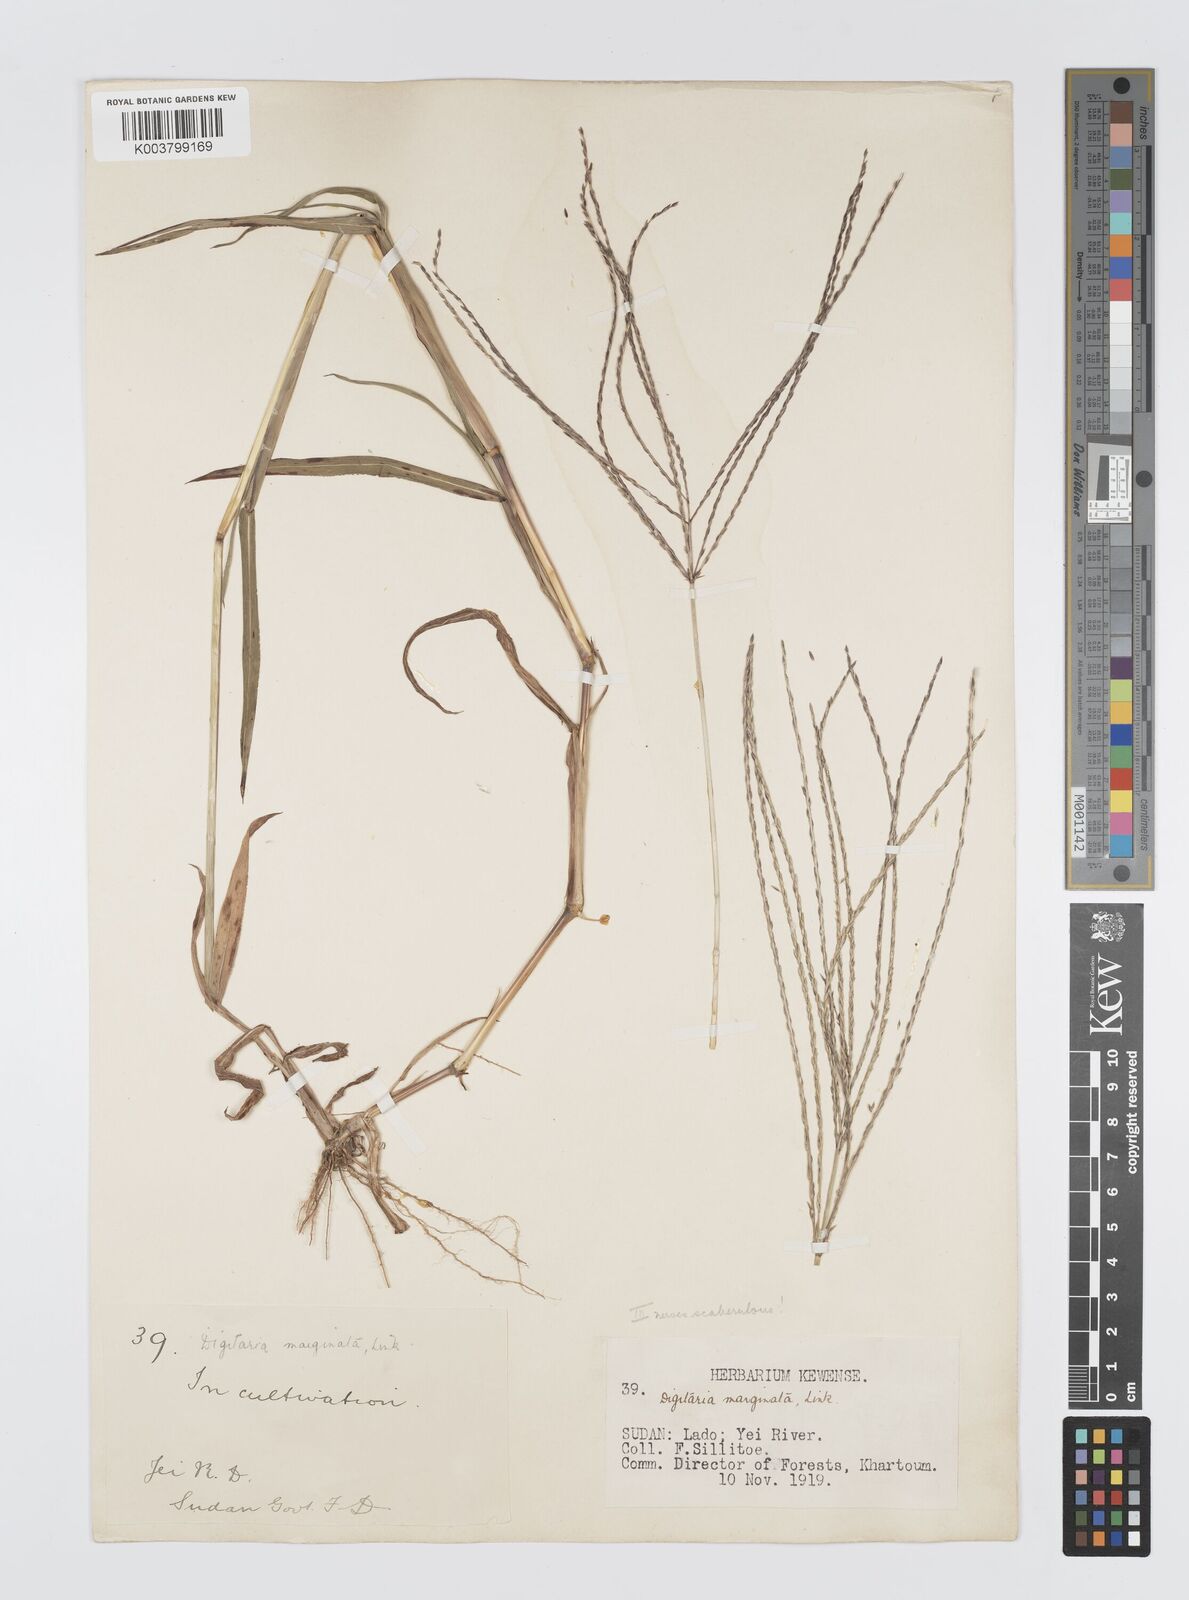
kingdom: Plantae
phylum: Tracheophyta
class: Liliopsida
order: Poales
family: Poaceae
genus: Digitaria
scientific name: Digitaria acuminatissima
